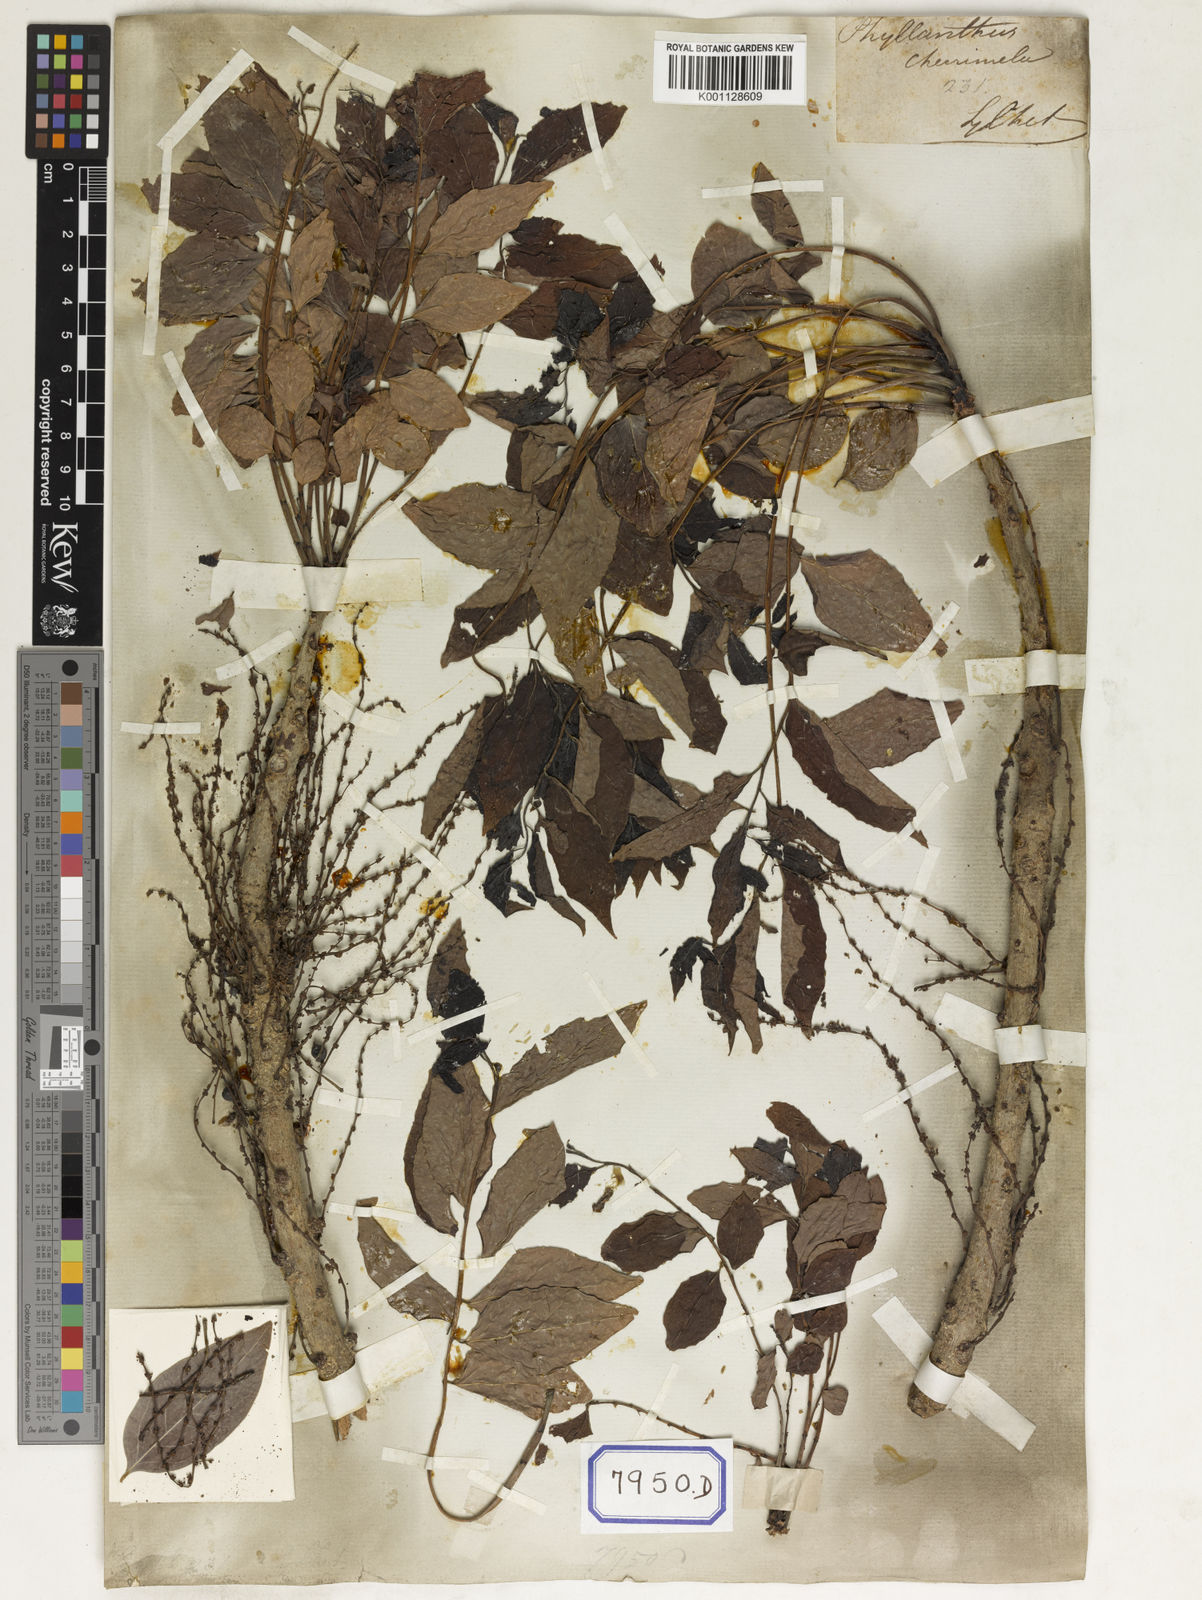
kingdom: Plantae
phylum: Tracheophyta
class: Magnoliopsida
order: Malpighiales
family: Euphorbiaceae
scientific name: Euphorbiaceae
